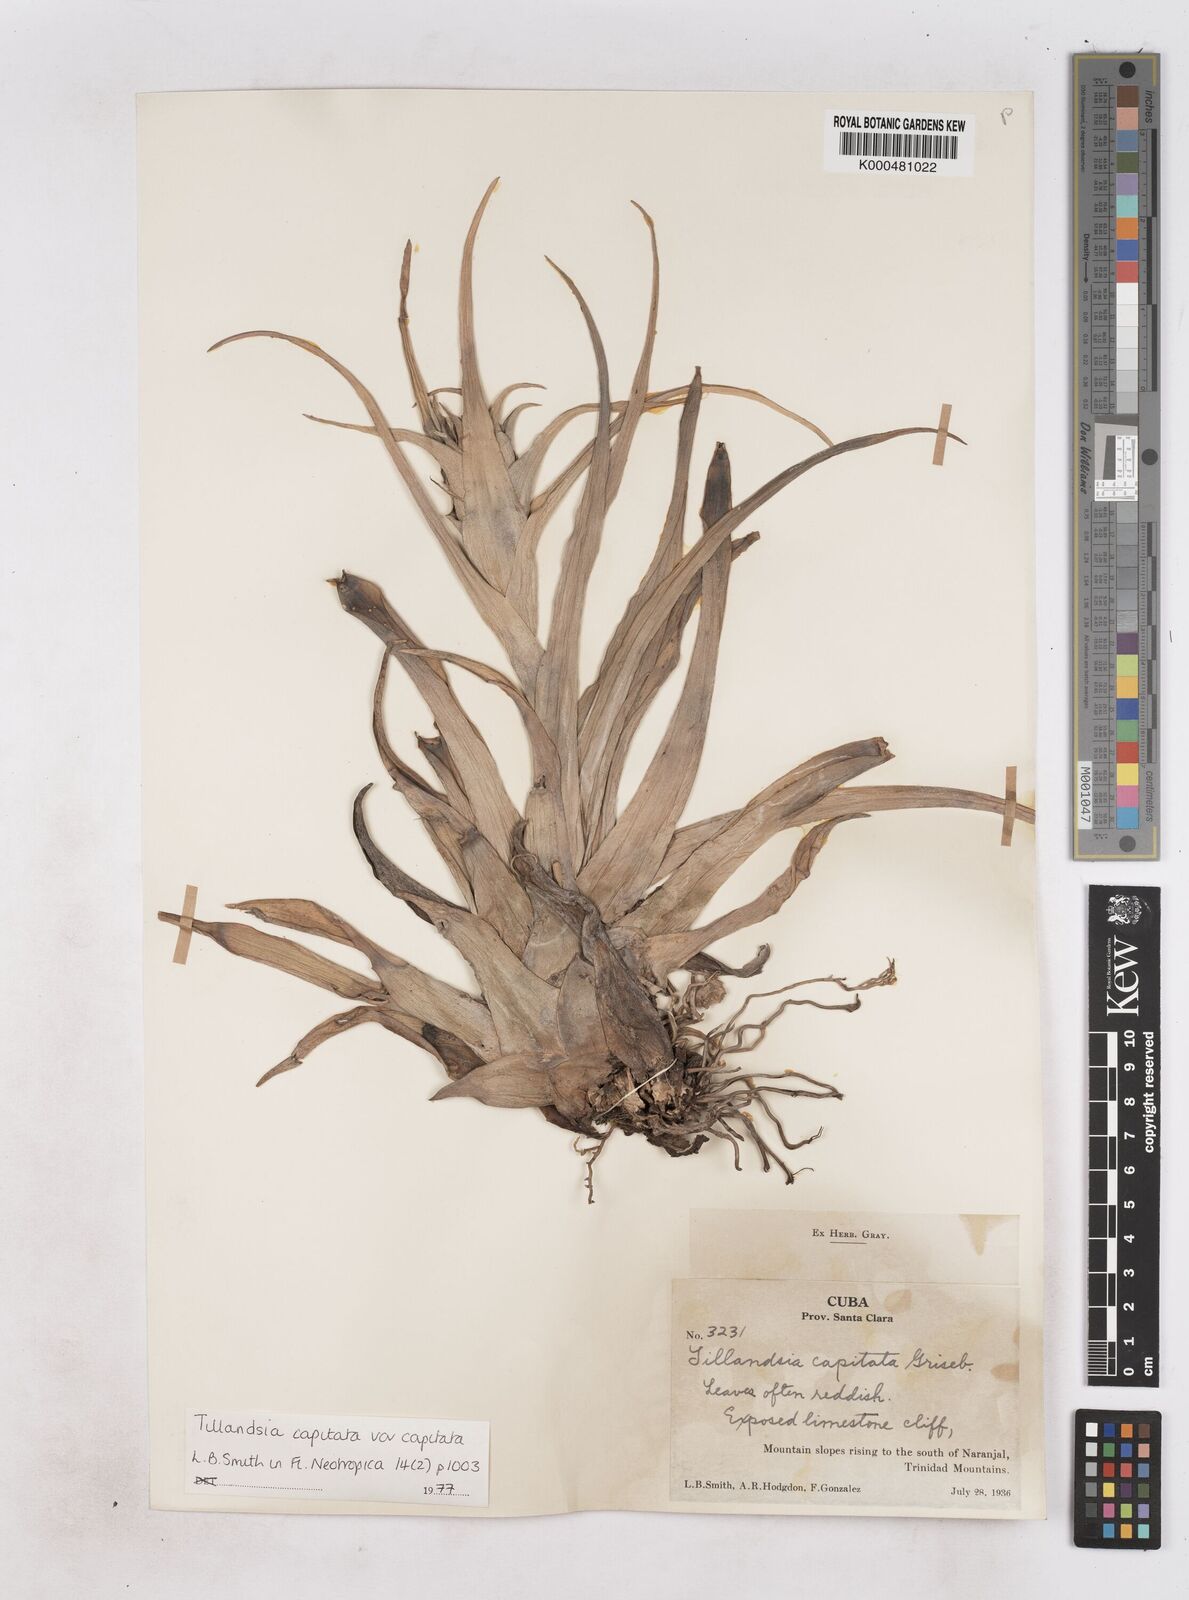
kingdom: Plantae
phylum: Tracheophyta
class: Liliopsida
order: Poales
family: Bromeliaceae
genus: Tillandsia
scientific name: Tillandsia
